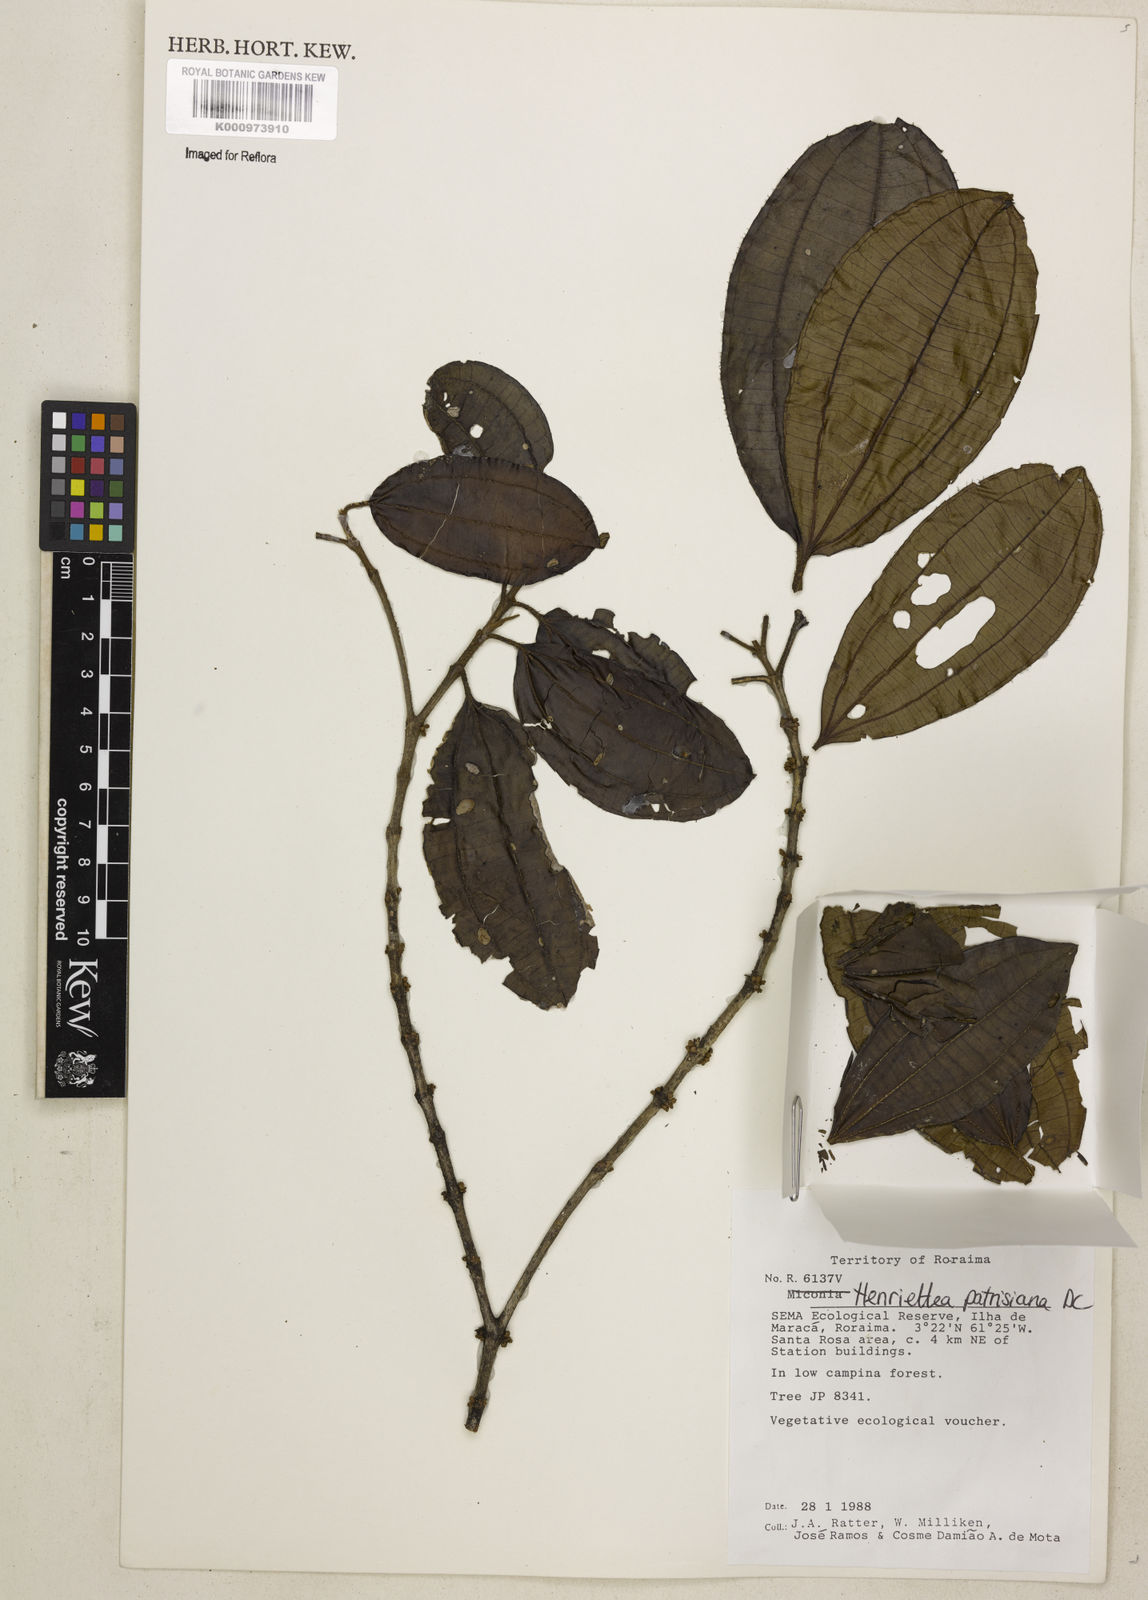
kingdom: Plantae
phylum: Tracheophyta
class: Magnoliopsida
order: Myrtales
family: Melastomataceae
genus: Henriettea
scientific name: Henriettea patrisiana
